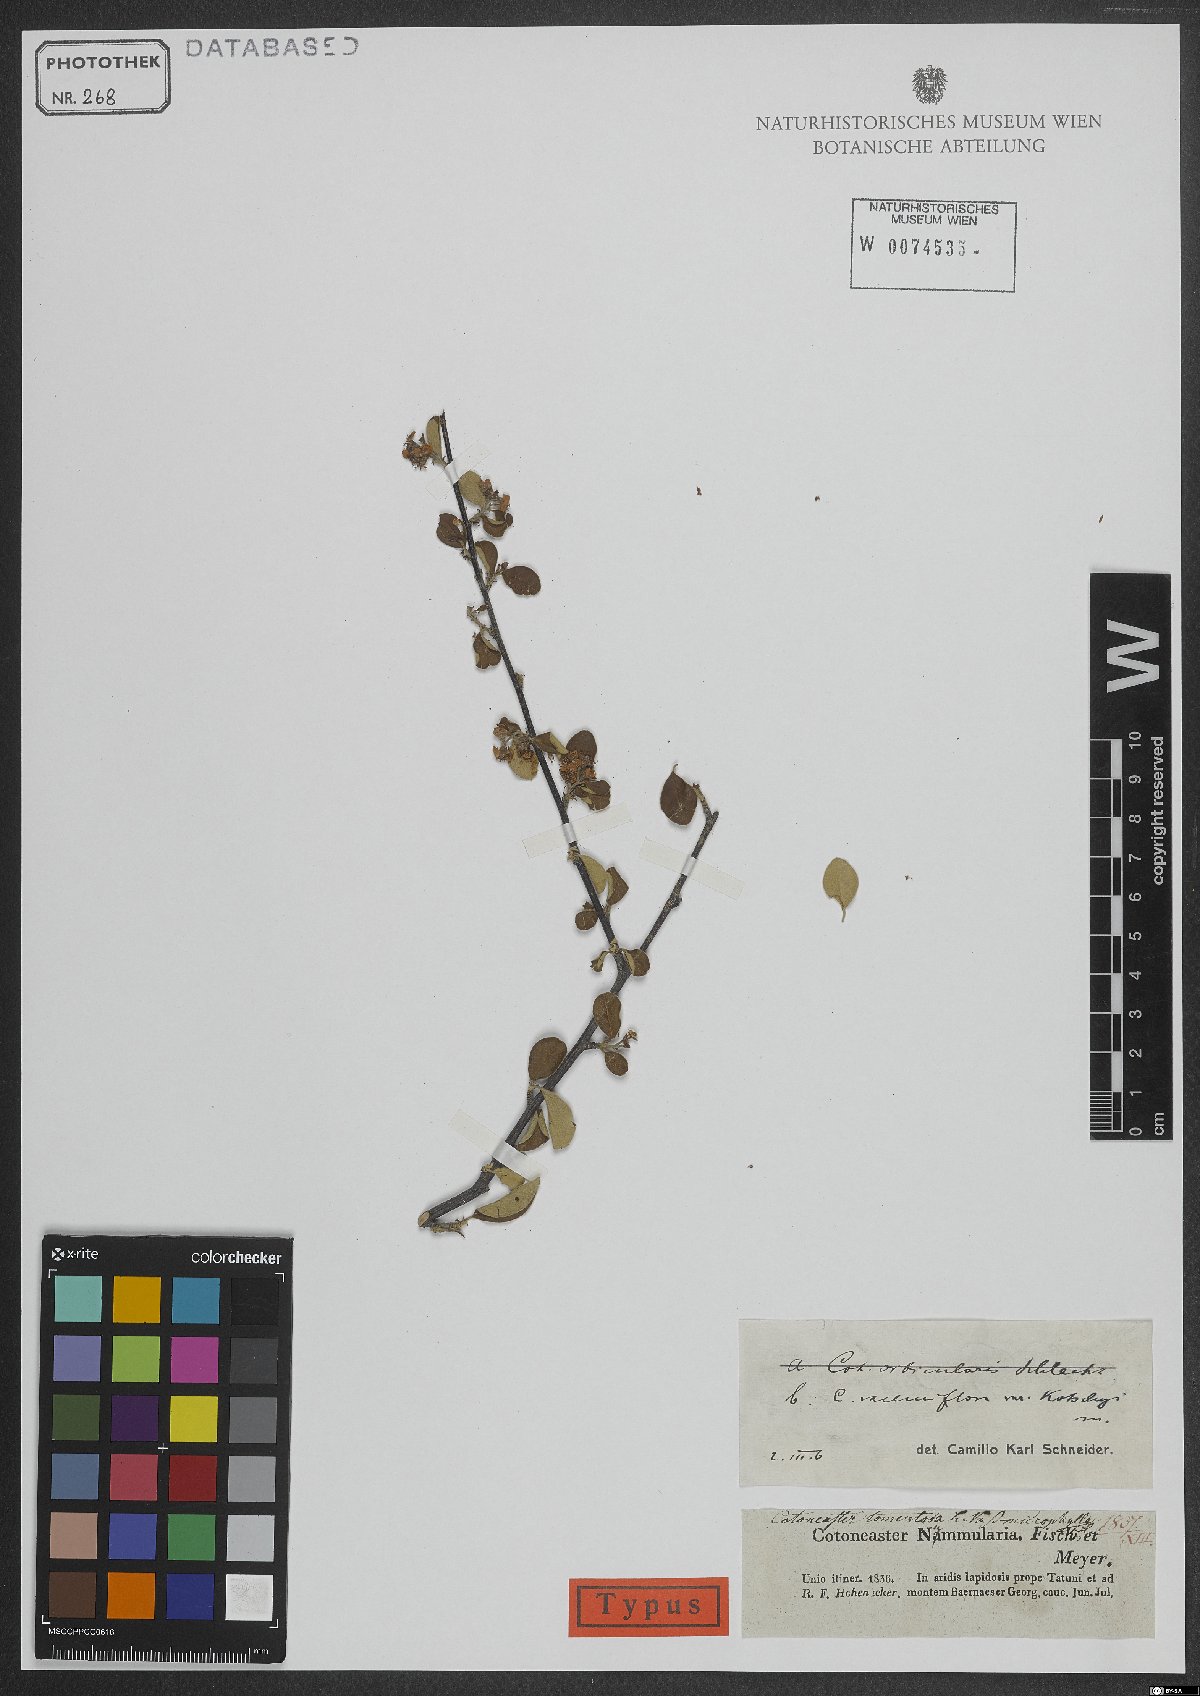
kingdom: Plantae
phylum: Tracheophyta
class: Magnoliopsida
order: Rosales
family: Rosaceae
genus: Cotoneaster
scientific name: Cotoneaster nummularius
